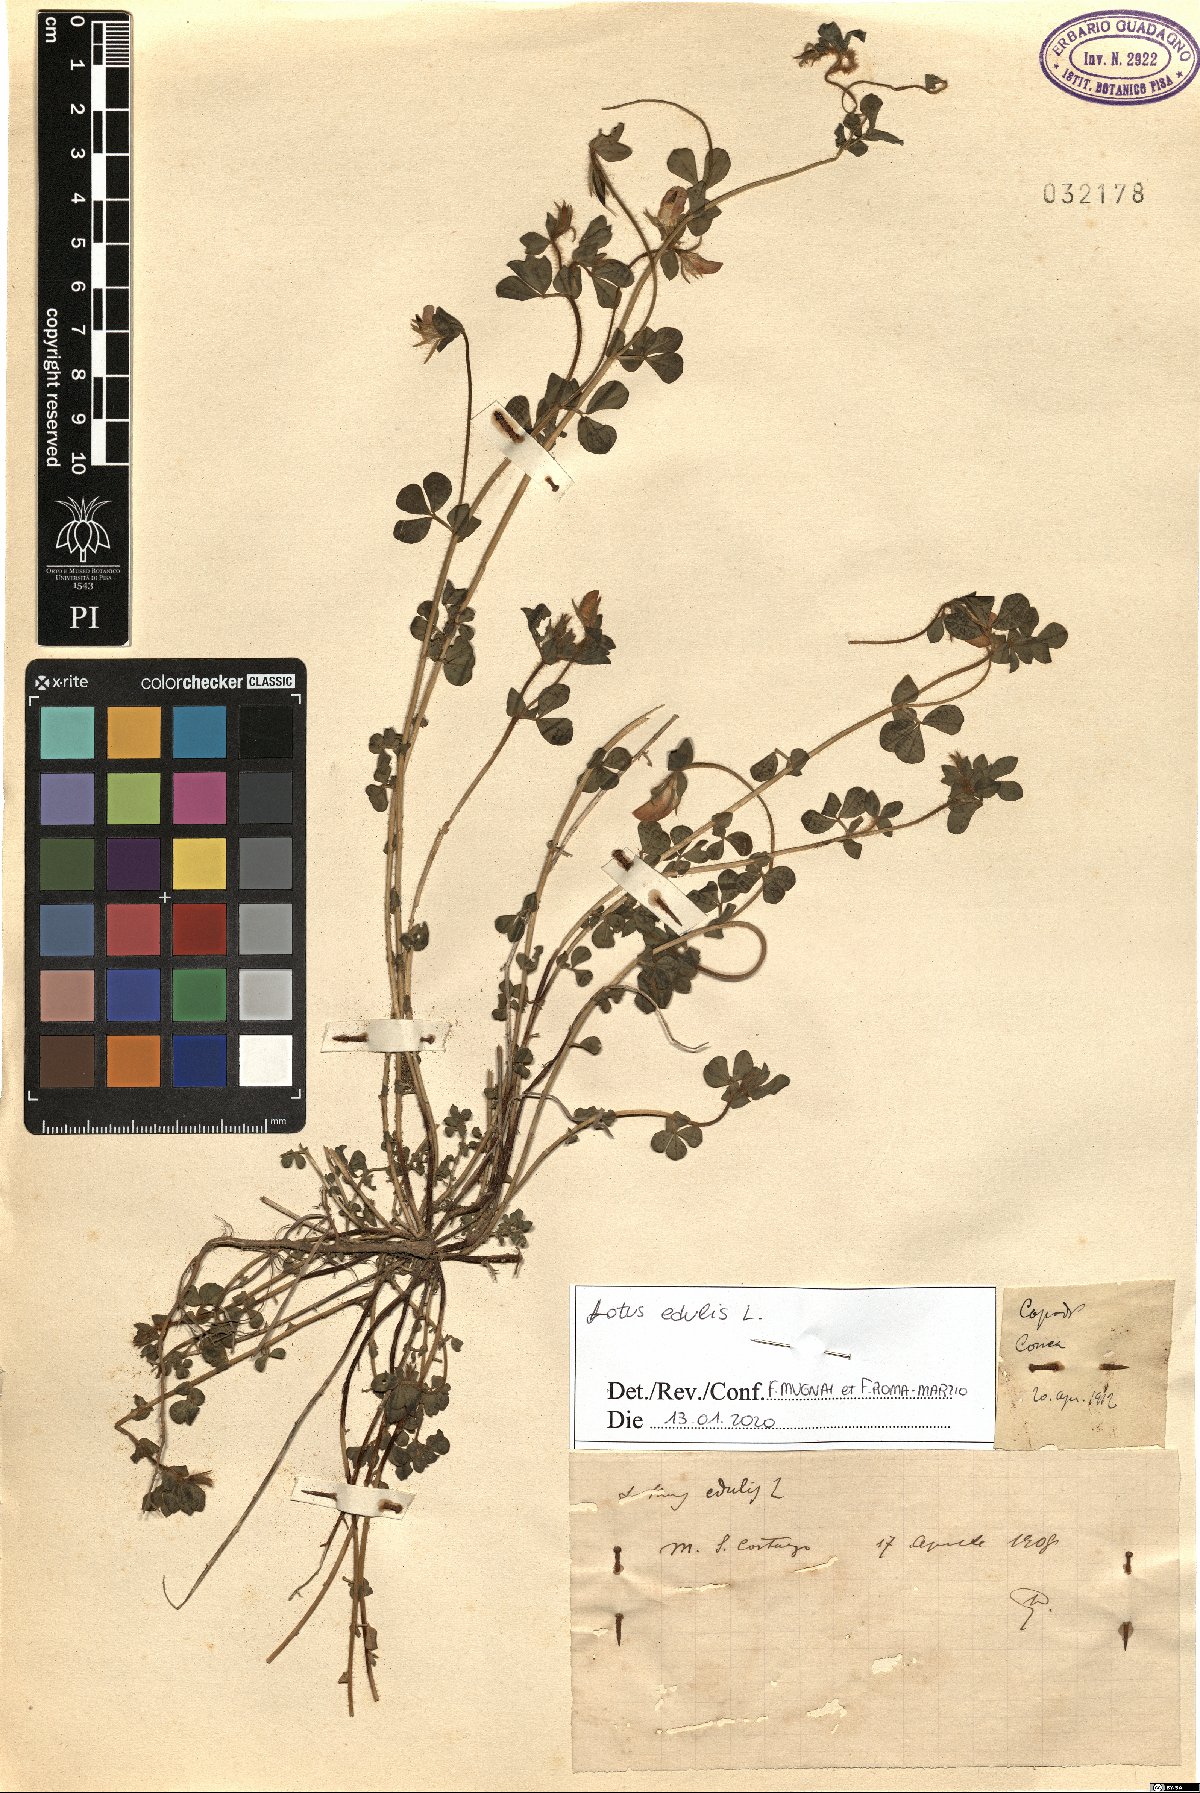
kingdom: Plantae
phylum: Tracheophyta
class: Magnoliopsida
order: Fabales
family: Fabaceae
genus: Lotus
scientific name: Lotus edulis
